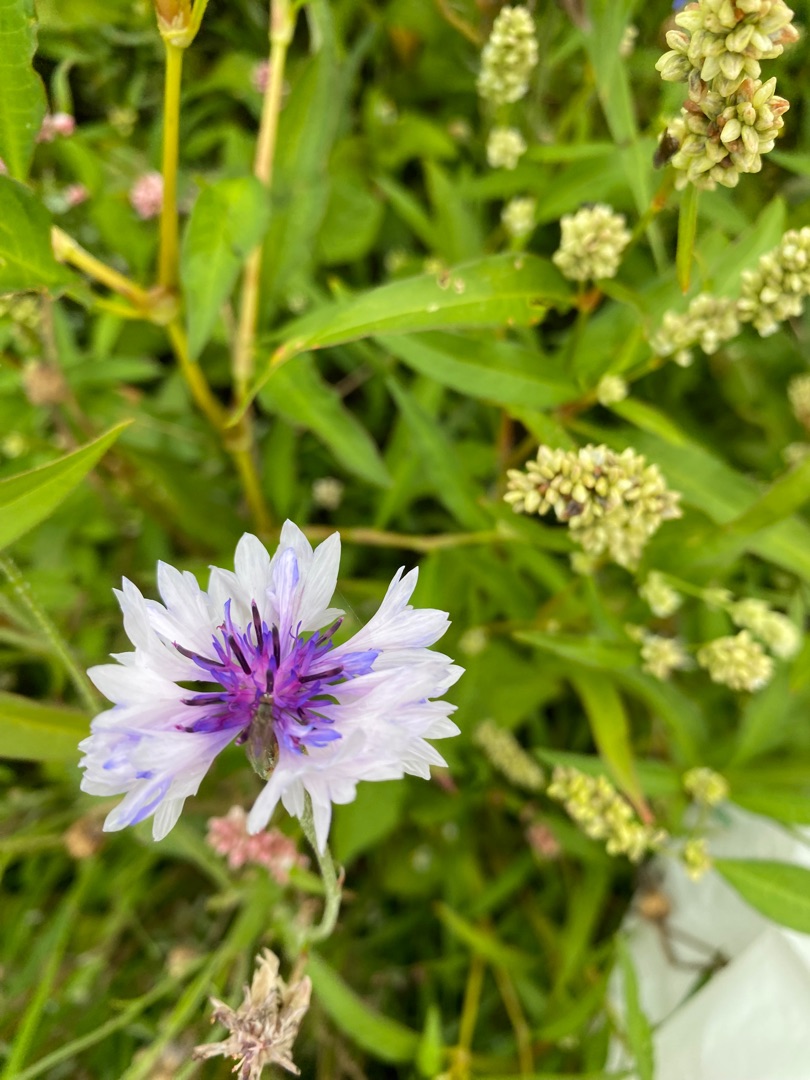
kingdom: Plantae
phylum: Tracheophyta
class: Magnoliopsida
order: Asterales
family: Asteraceae
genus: Centaurea
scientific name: Centaurea cyanus
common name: Kornblomst
